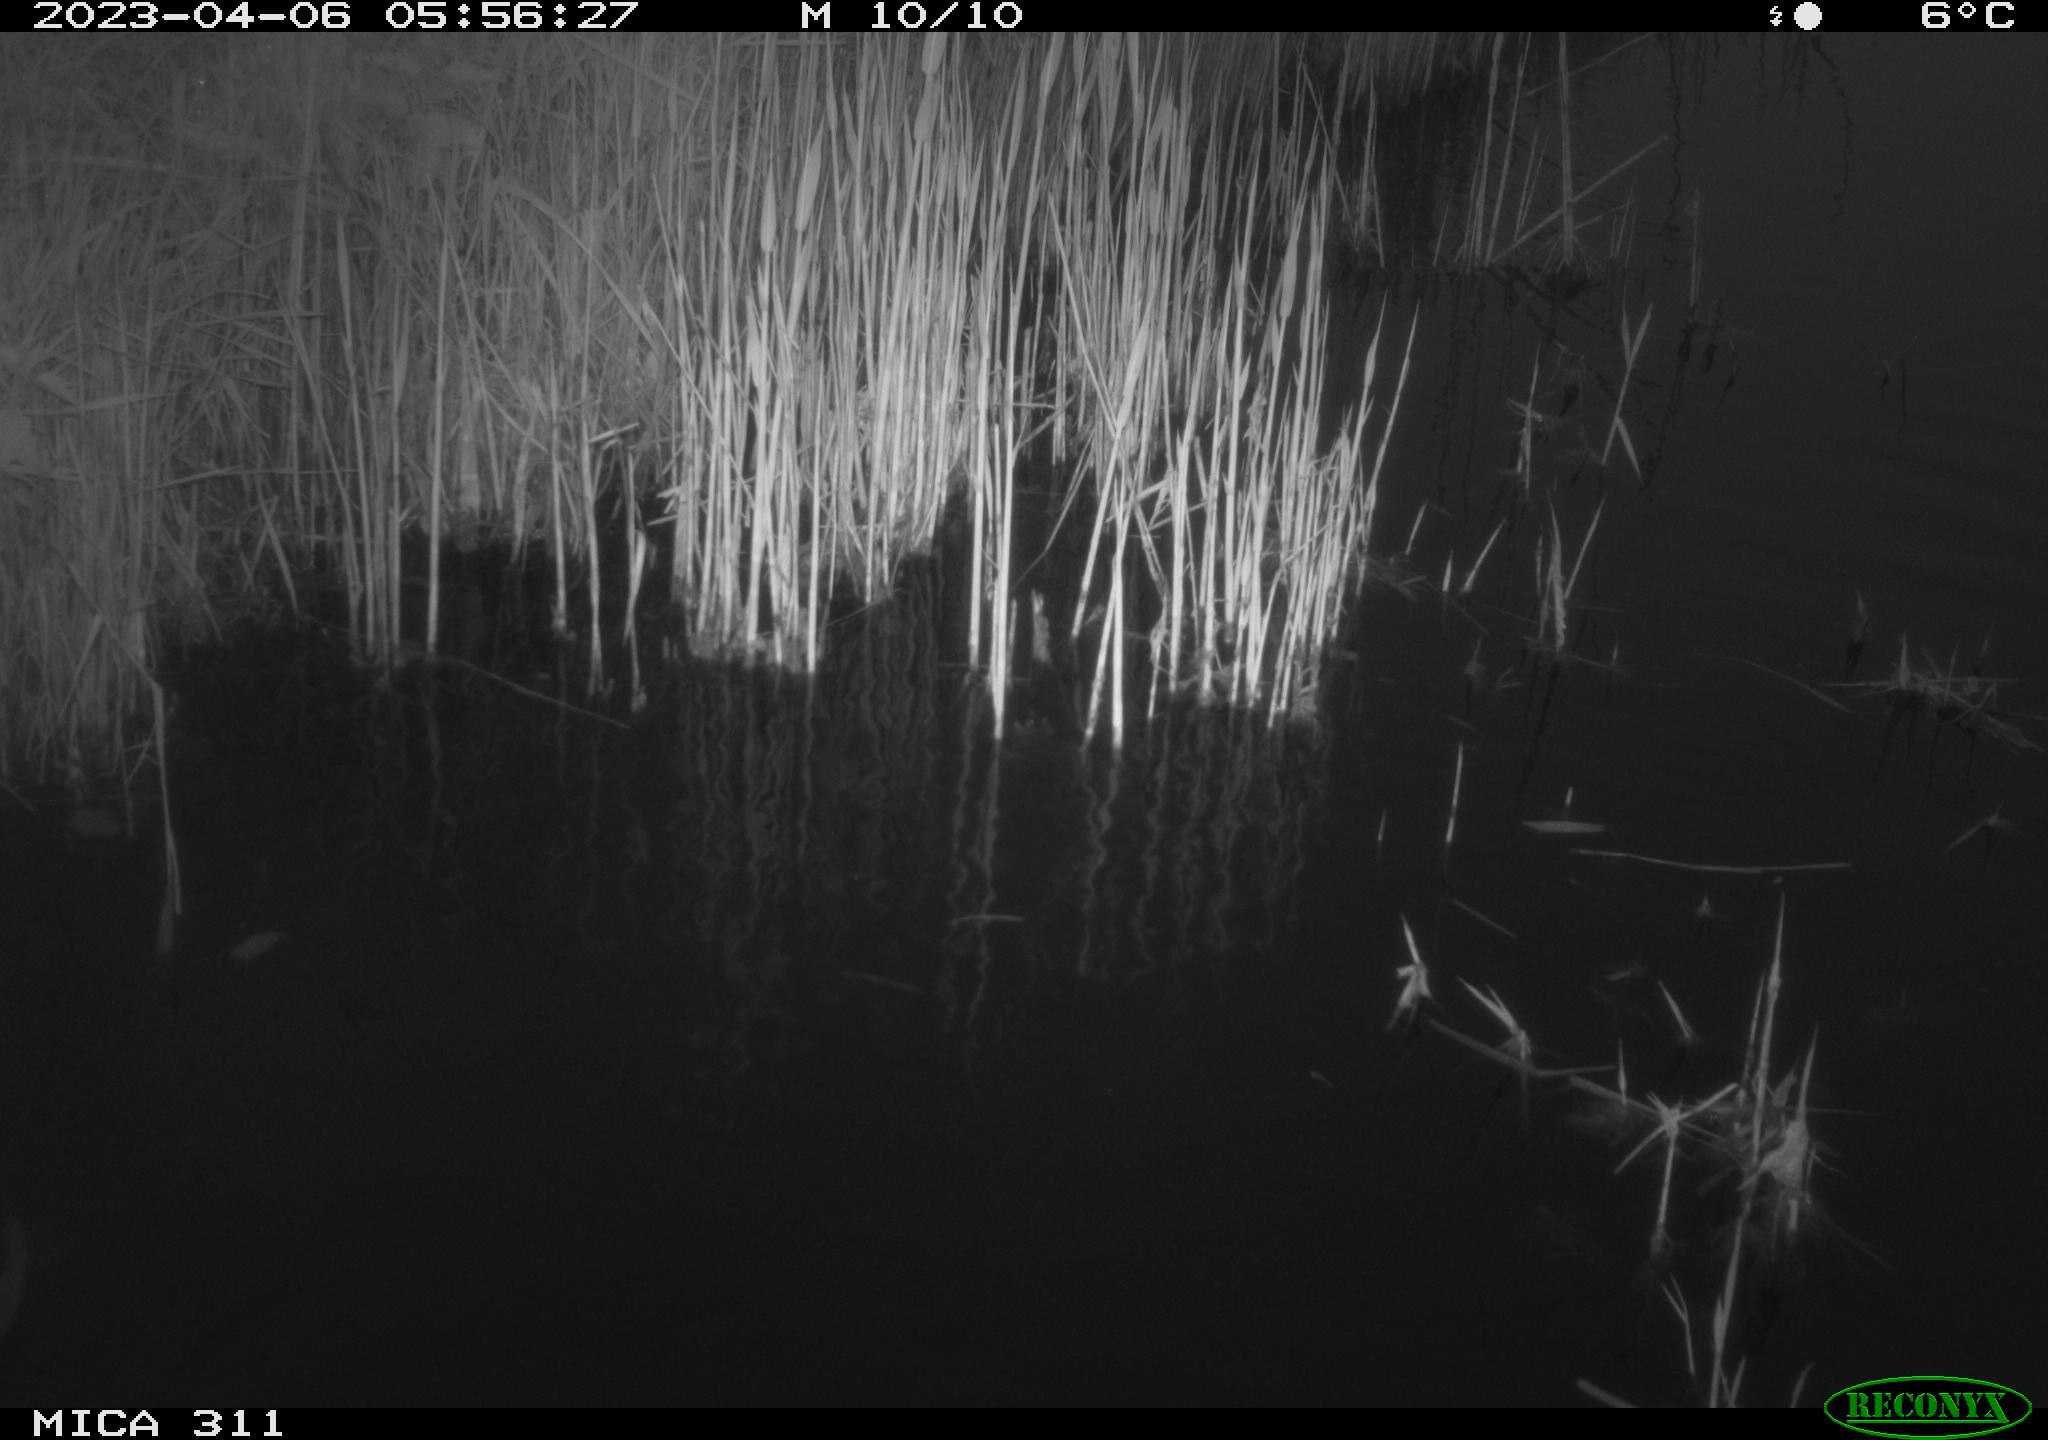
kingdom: Animalia
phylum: Chordata
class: Aves
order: Gruiformes
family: Rallidae
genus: Gallinula
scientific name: Gallinula chloropus
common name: Common moorhen
